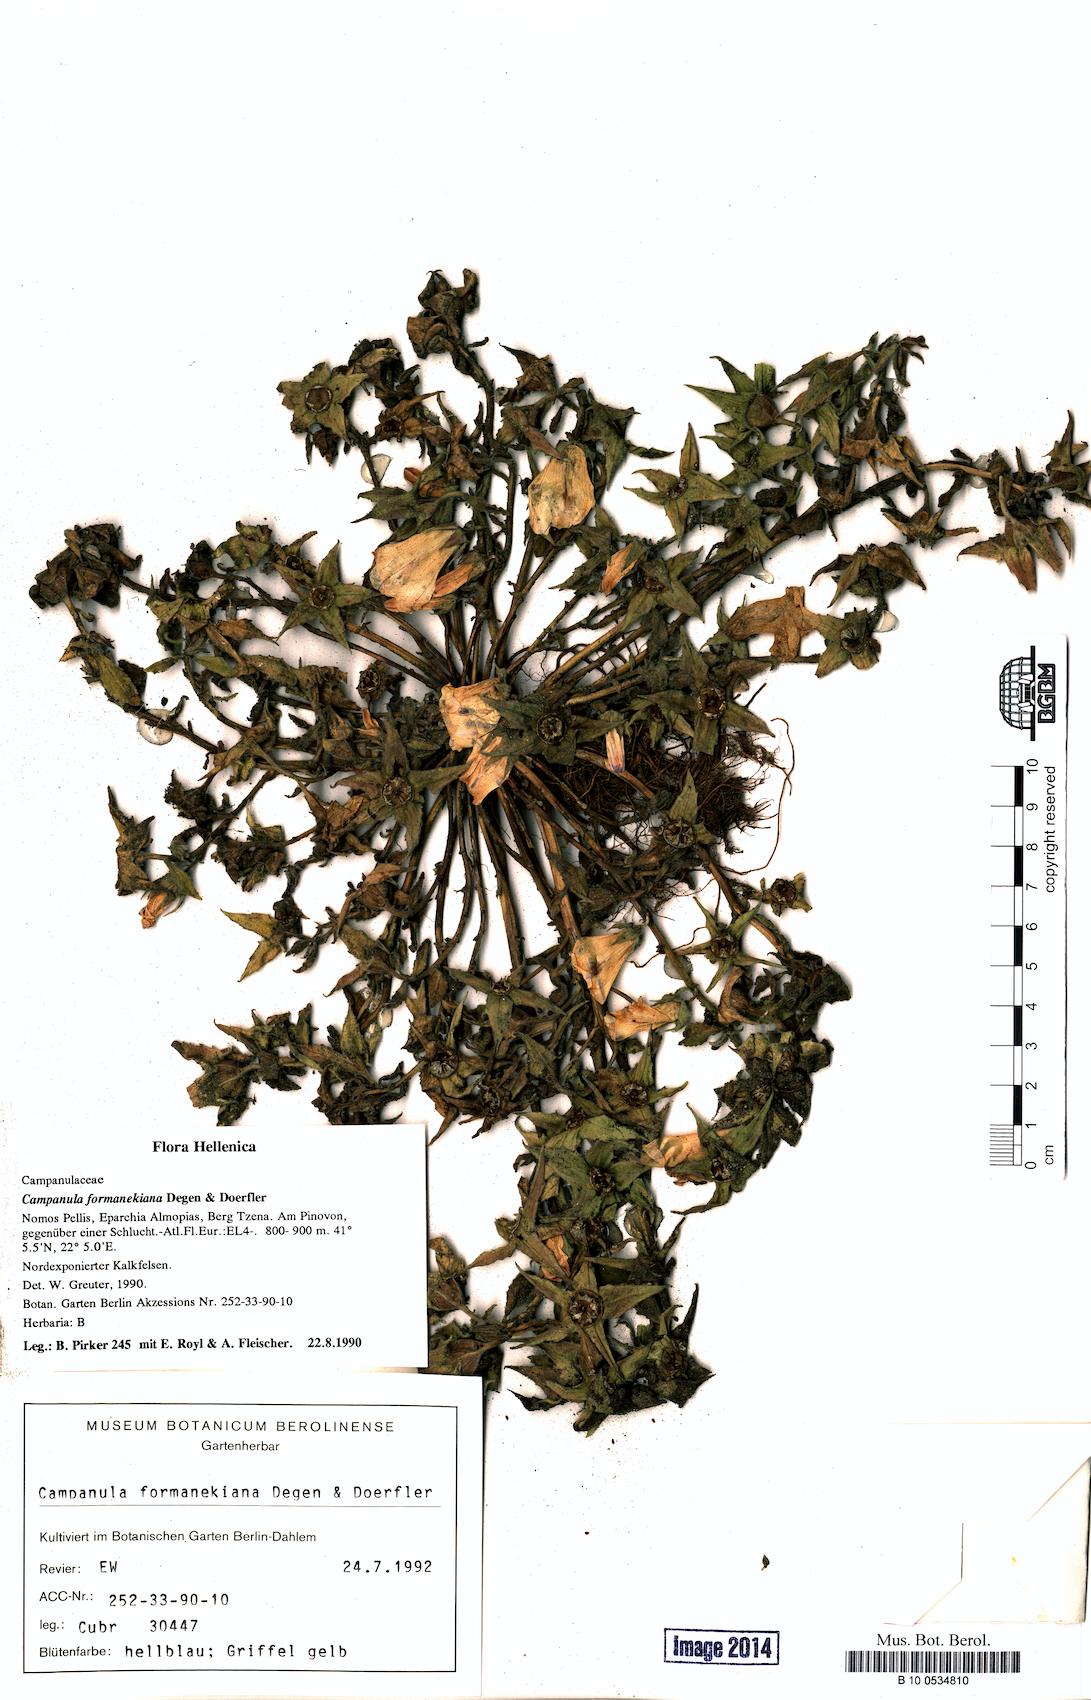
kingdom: Plantae
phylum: Tracheophyta
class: Magnoliopsida
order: Asterales
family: Campanulaceae
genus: Campanula
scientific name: Campanula formanekiana
